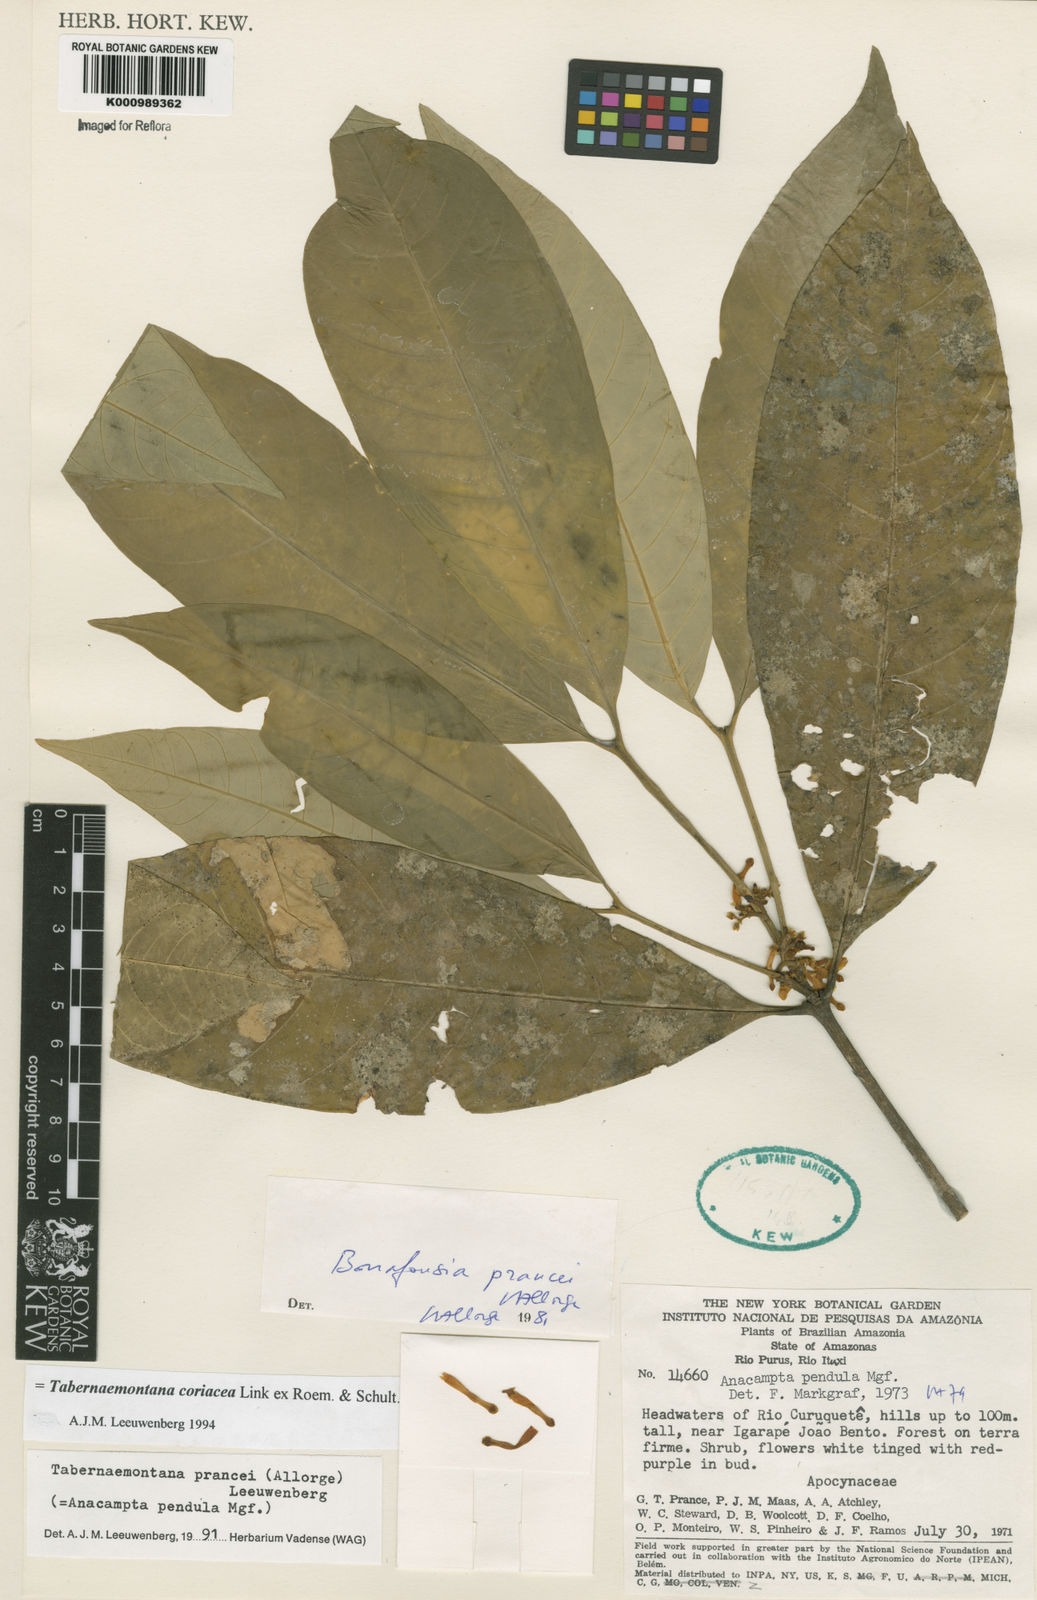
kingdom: Plantae
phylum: Tracheophyta
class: Magnoliopsida
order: Gentianales
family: Apocynaceae
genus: Tabernaemontana
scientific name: Tabernaemontana coriacea
